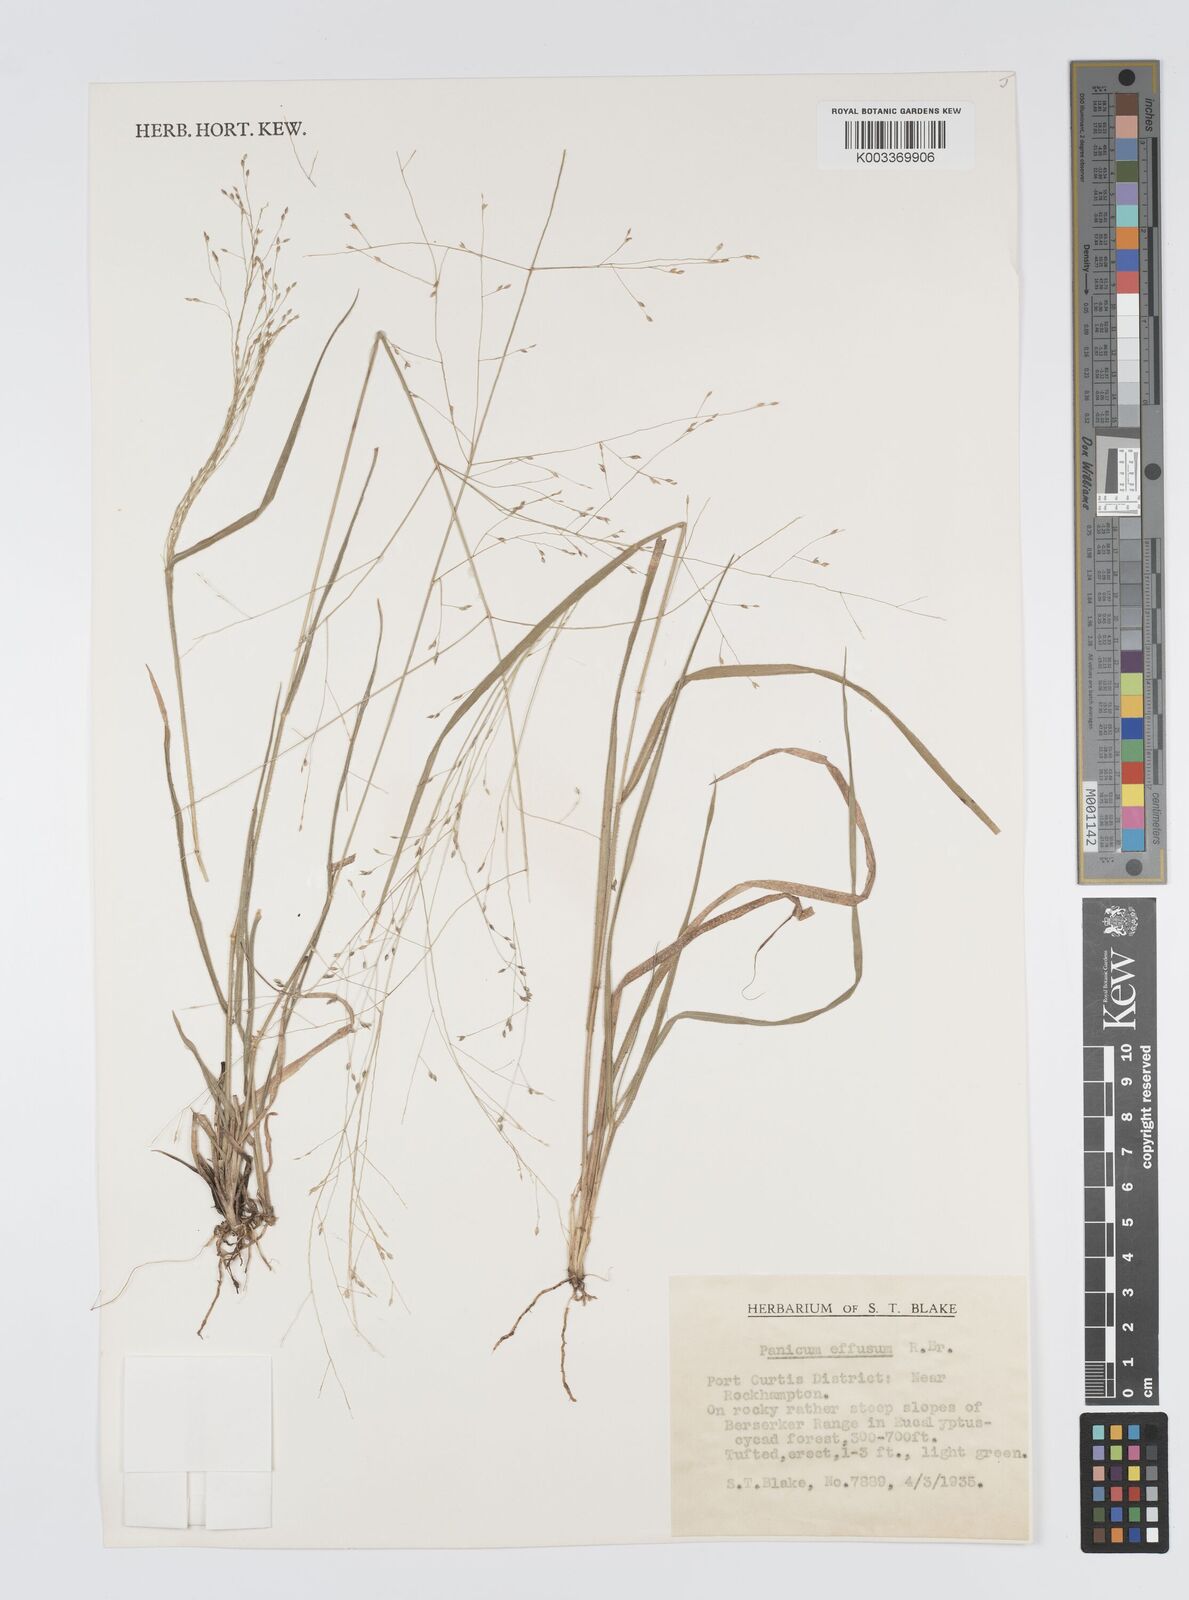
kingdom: Plantae
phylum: Tracheophyta
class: Liliopsida
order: Poales
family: Poaceae
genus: Panicum
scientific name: Panicum effusum
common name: Hairy panic grass
